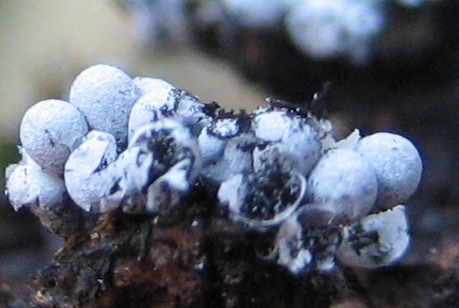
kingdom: Protozoa
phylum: Mycetozoa
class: Myxomycetes
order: Physarales
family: Physaraceae
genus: Badhamia
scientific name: Badhamia capsulifera
